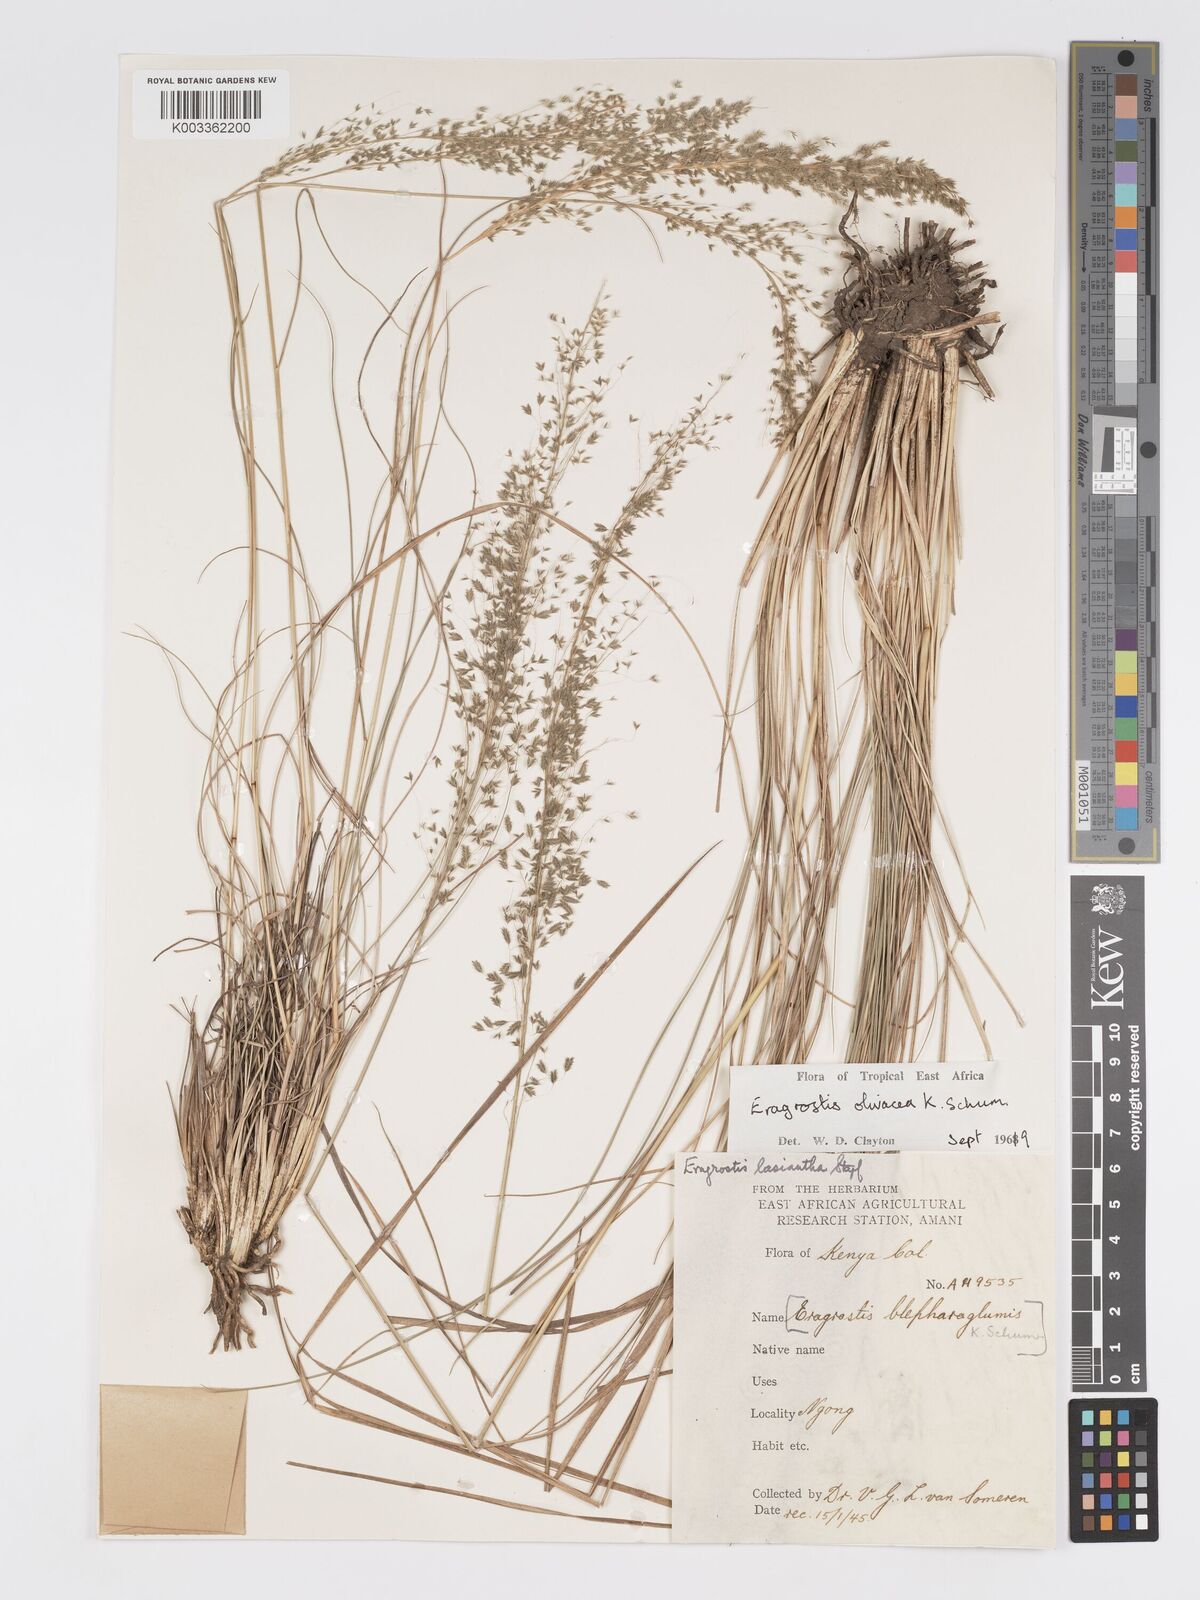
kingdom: Plantae
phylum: Tracheophyta
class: Liliopsida
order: Poales
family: Poaceae
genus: Eragrostis
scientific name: Eragrostis olivacea
